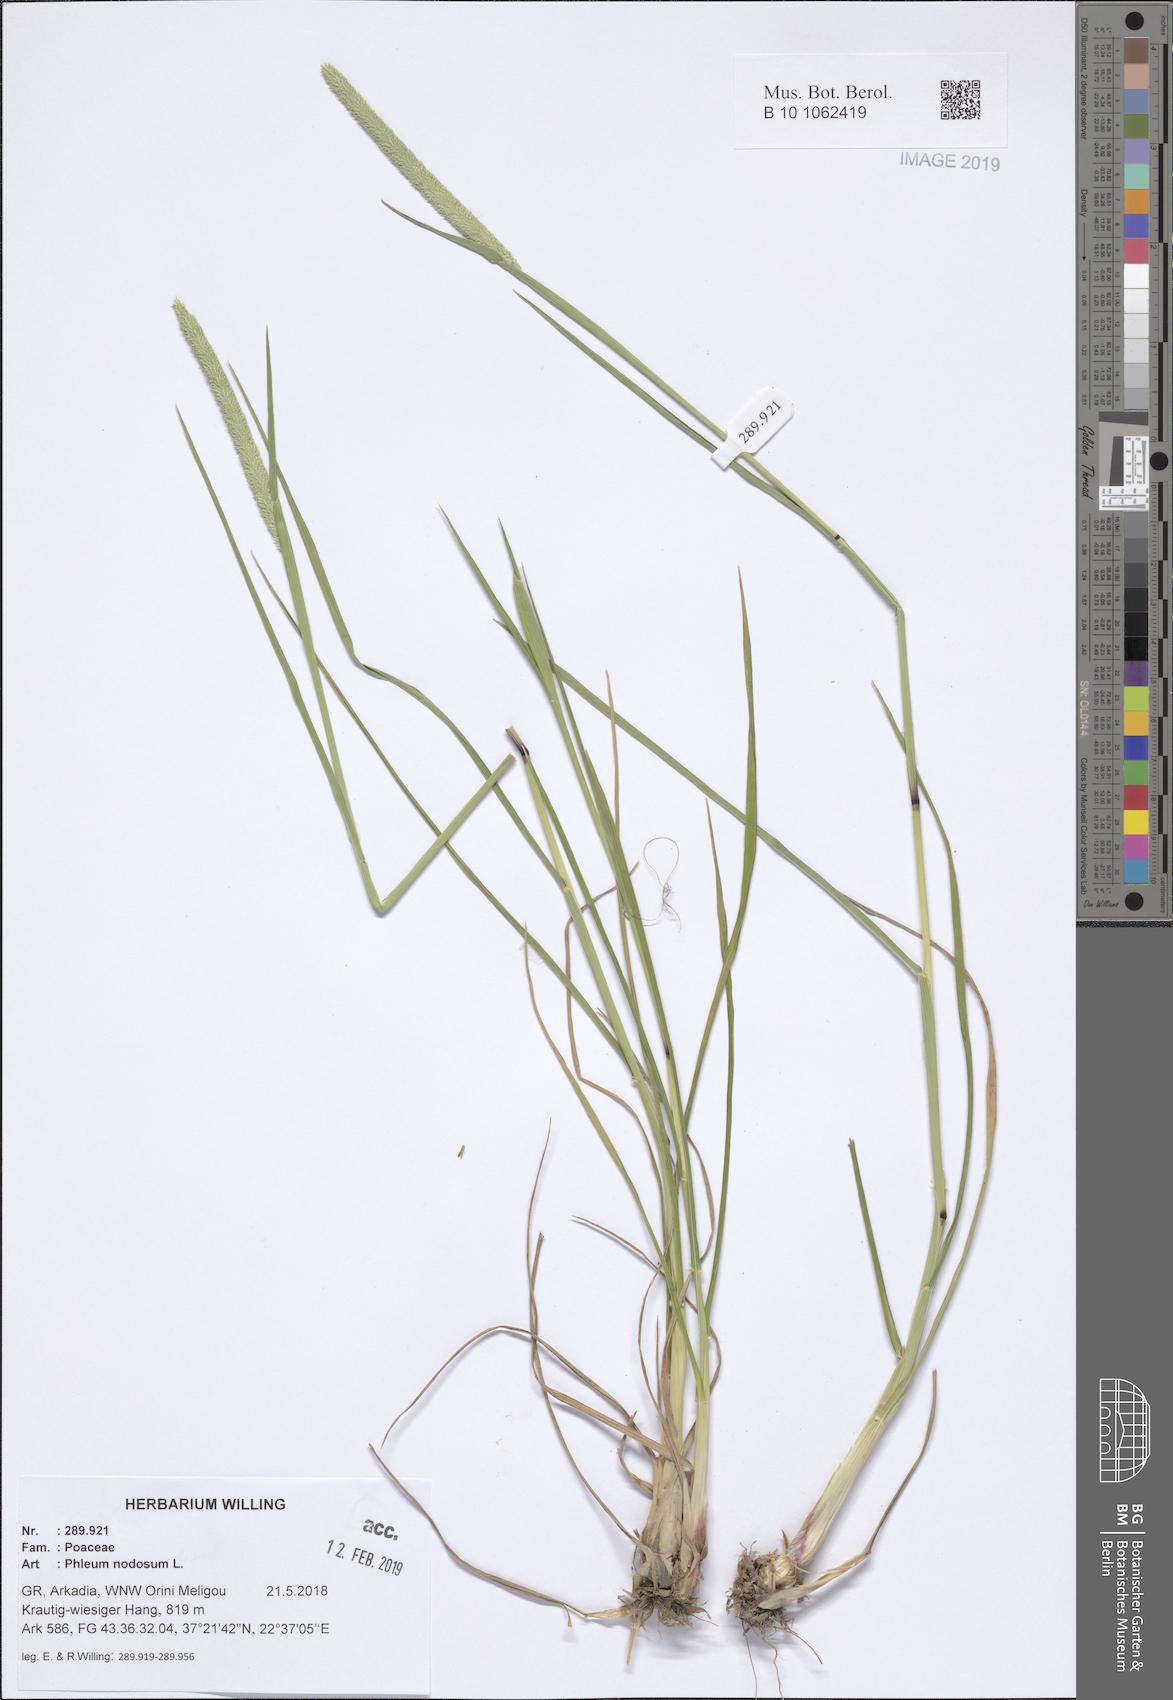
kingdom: Plantae
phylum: Tracheophyta
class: Liliopsida
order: Poales
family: Poaceae
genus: Phleum
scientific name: Phleum pratense
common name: Timothy grass
